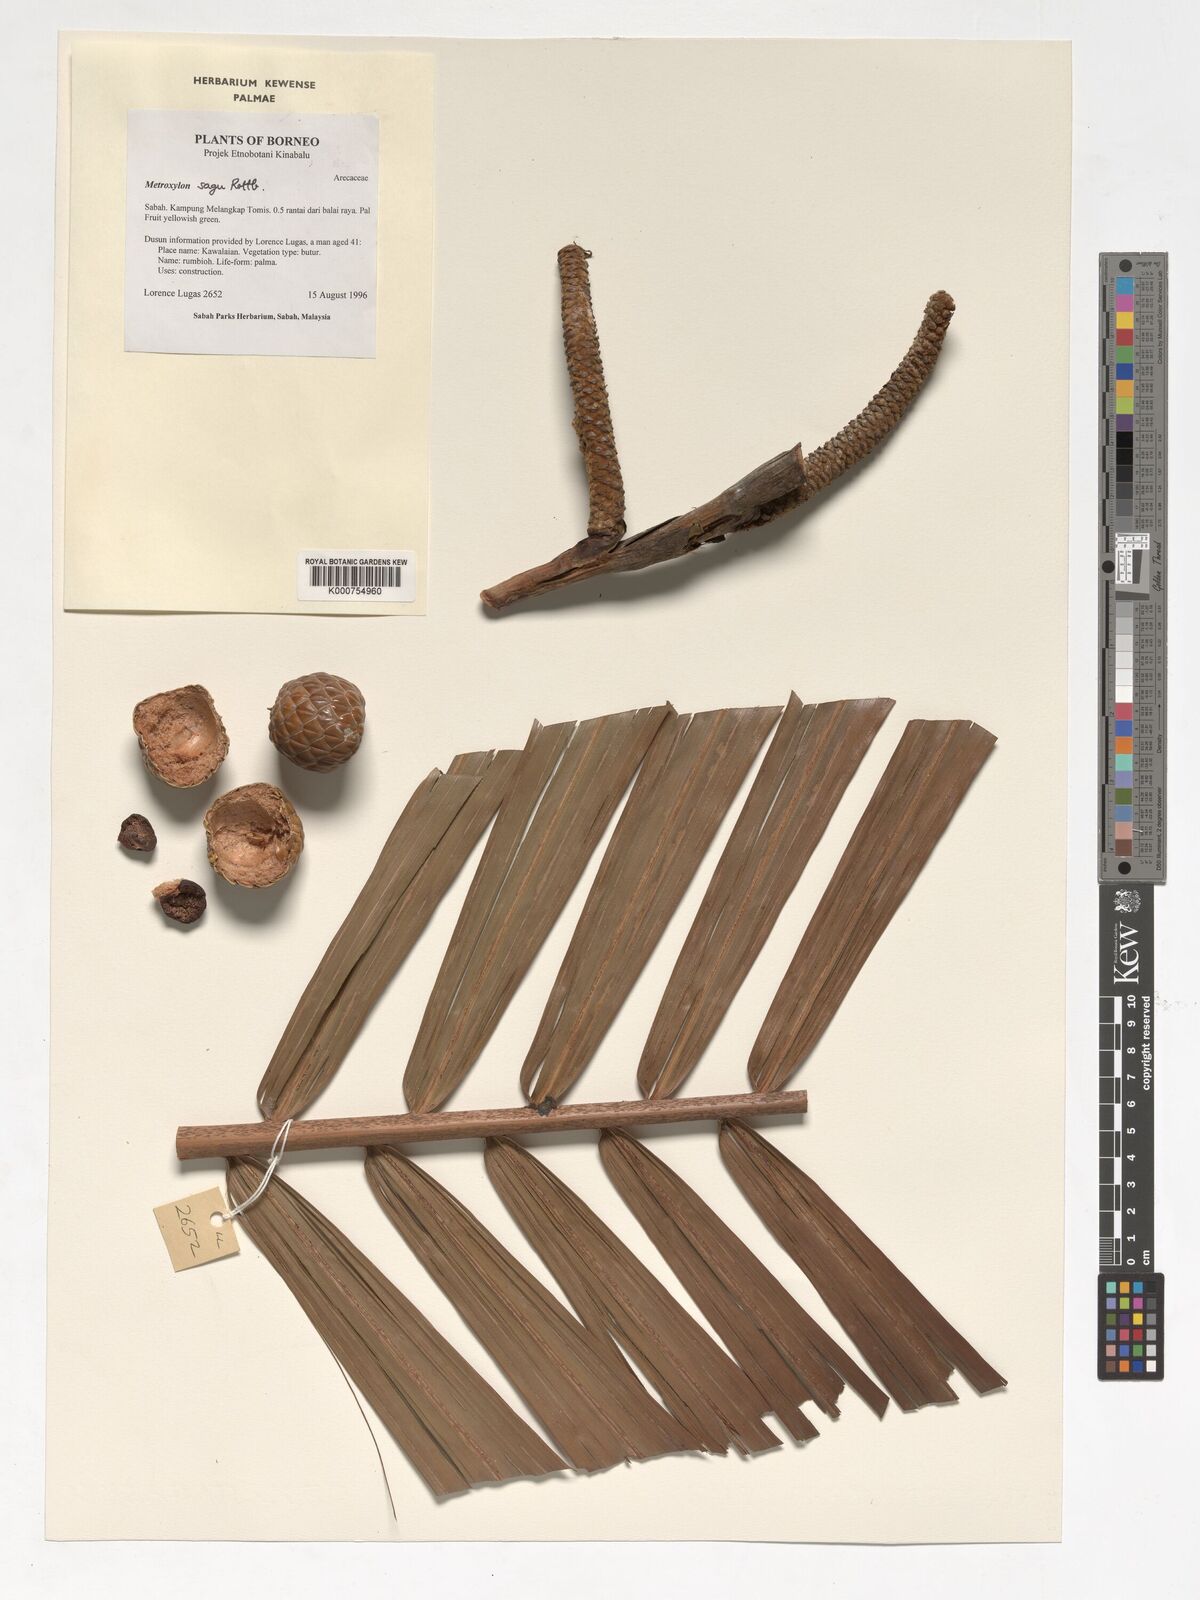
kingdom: Plantae
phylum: Tracheophyta
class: Liliopsida
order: Arecales
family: Arecaceae
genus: Metroxylon
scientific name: Metroxylon sagu
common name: Sago palm
